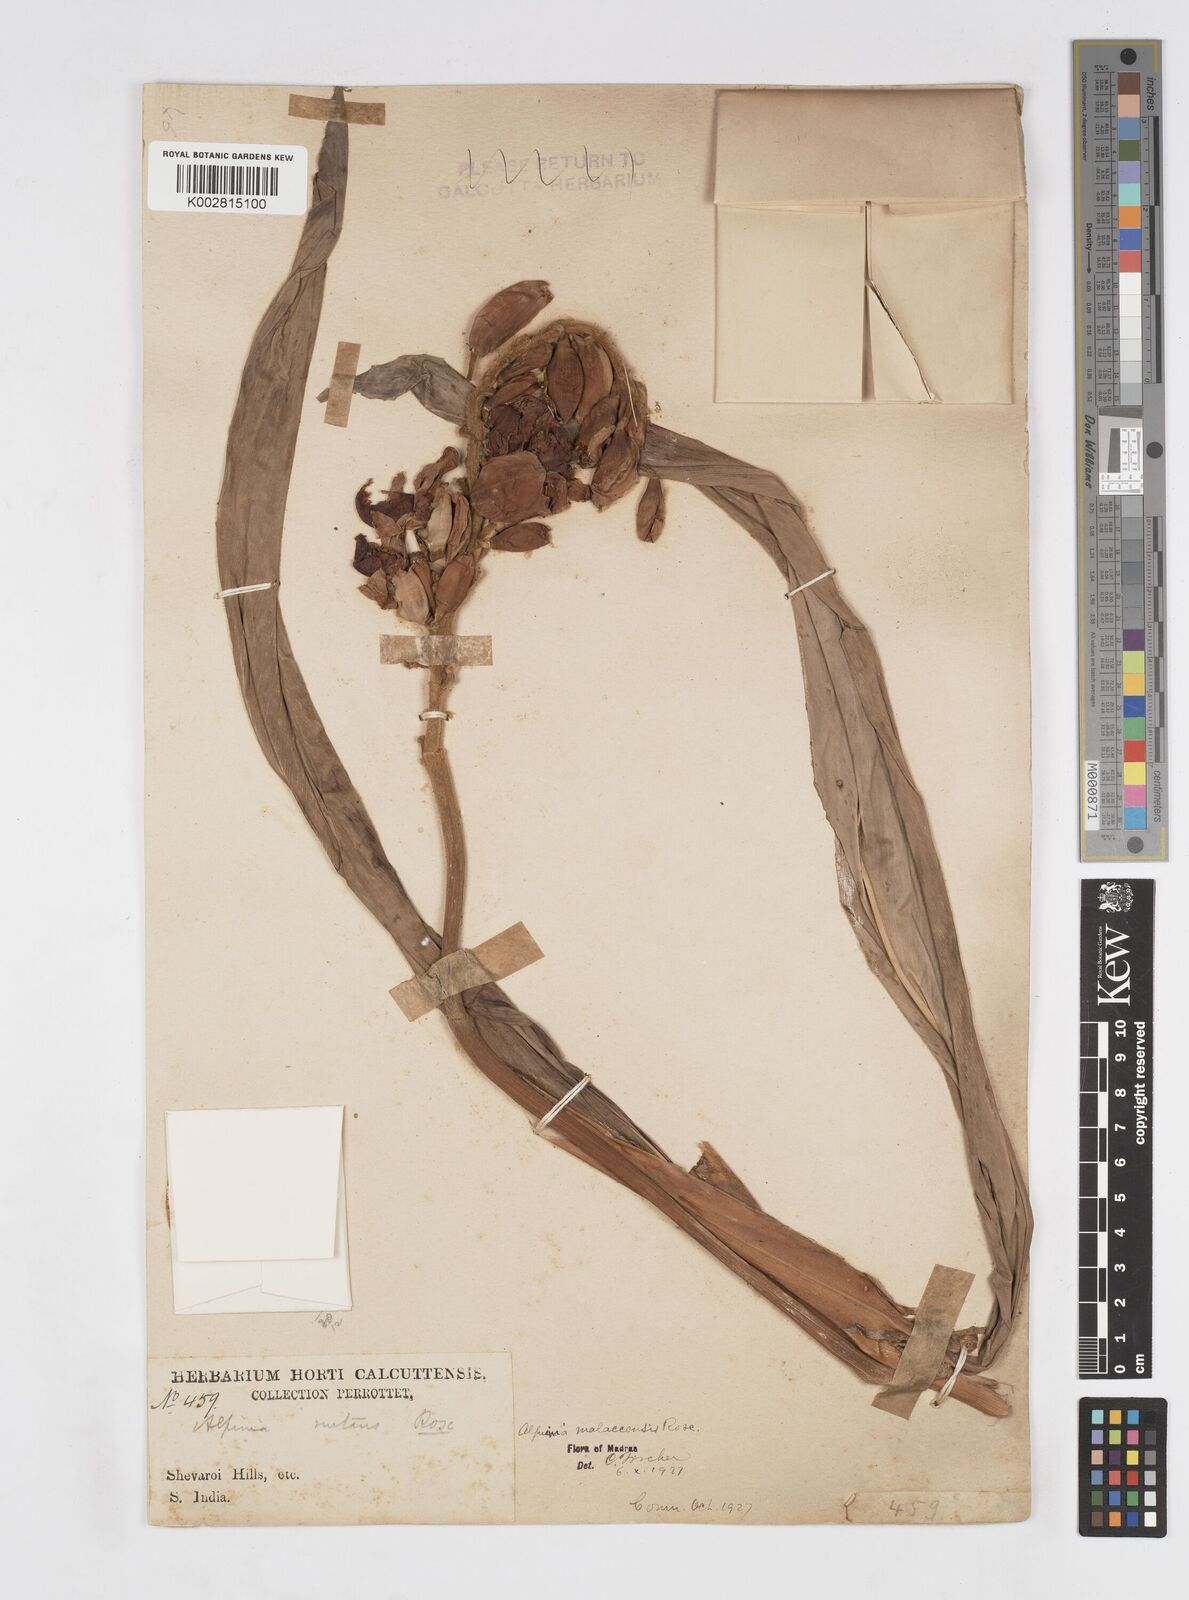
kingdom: Plantae
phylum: Tracheophyta
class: Liliopsida
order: Zingiberales
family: Zingiberaceae
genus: Alpinia
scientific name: Alpinia malaccensis
